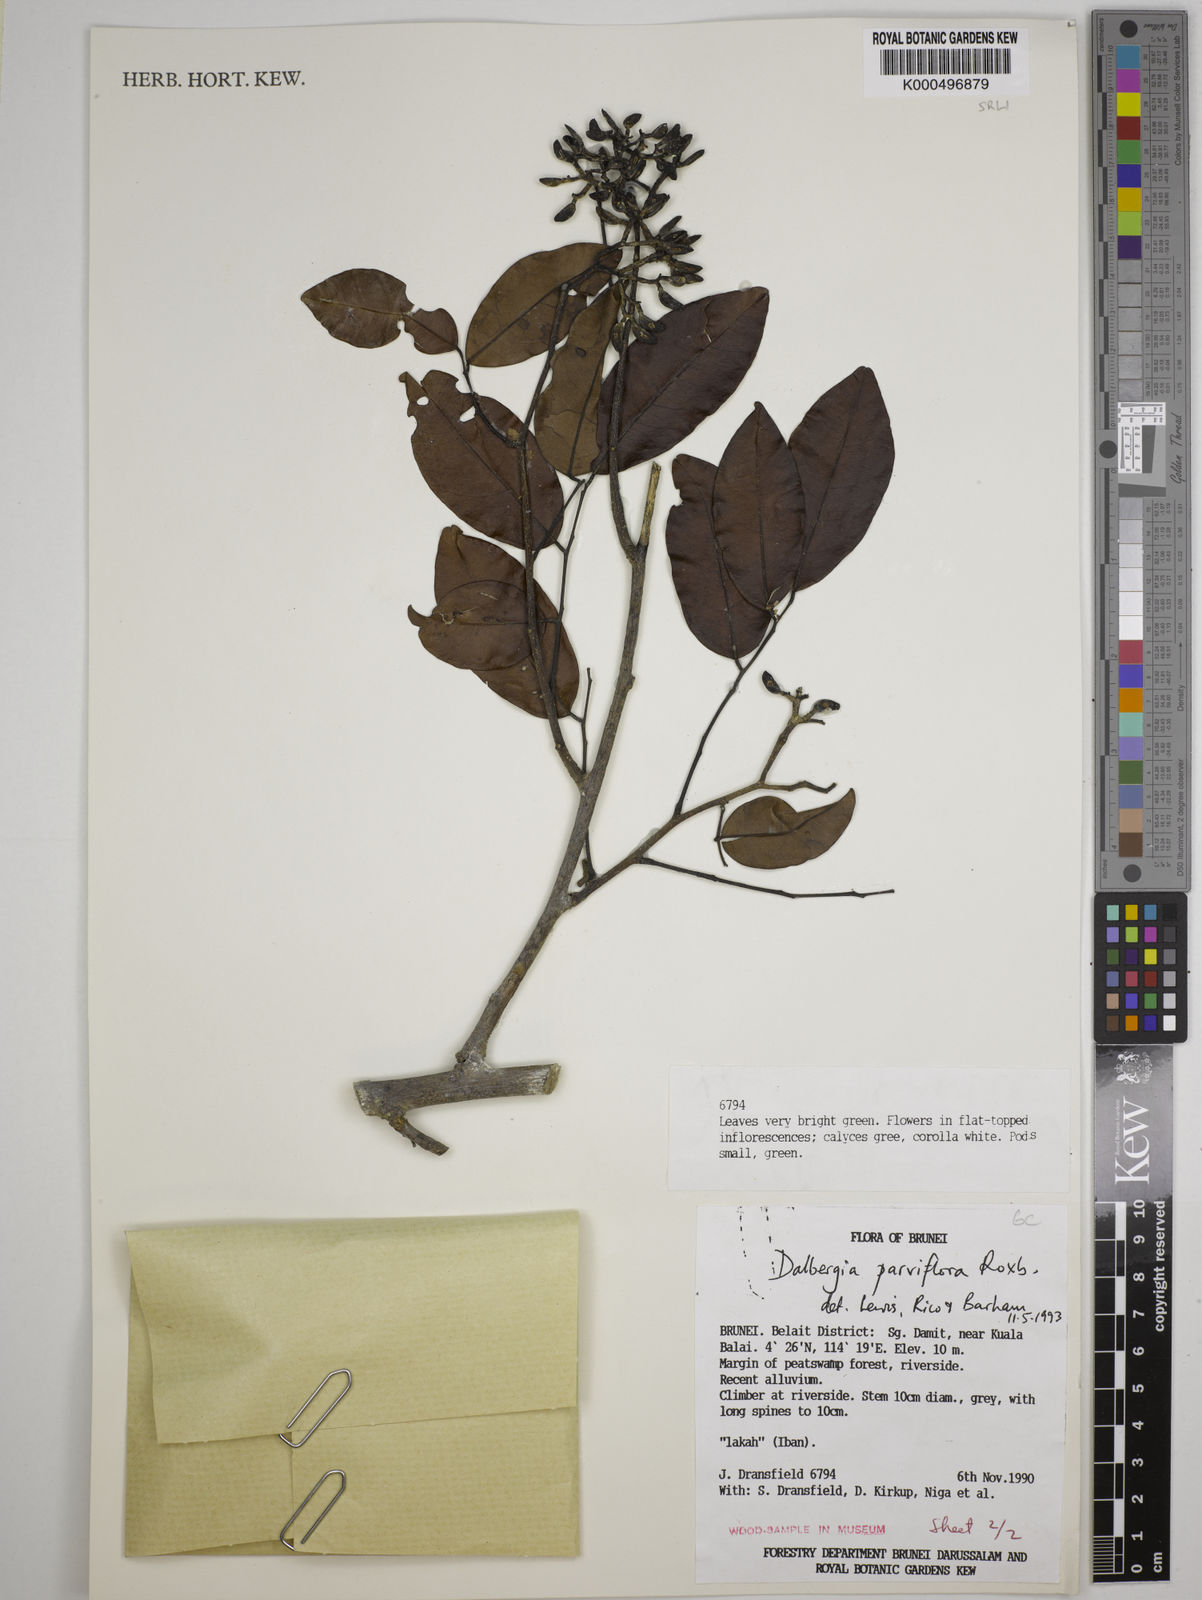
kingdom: Plantae
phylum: Tracheophyta
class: Magnoliopsida
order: Fabales
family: Fabaceae
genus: Dalbergia
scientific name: Dalbergia parviflora
